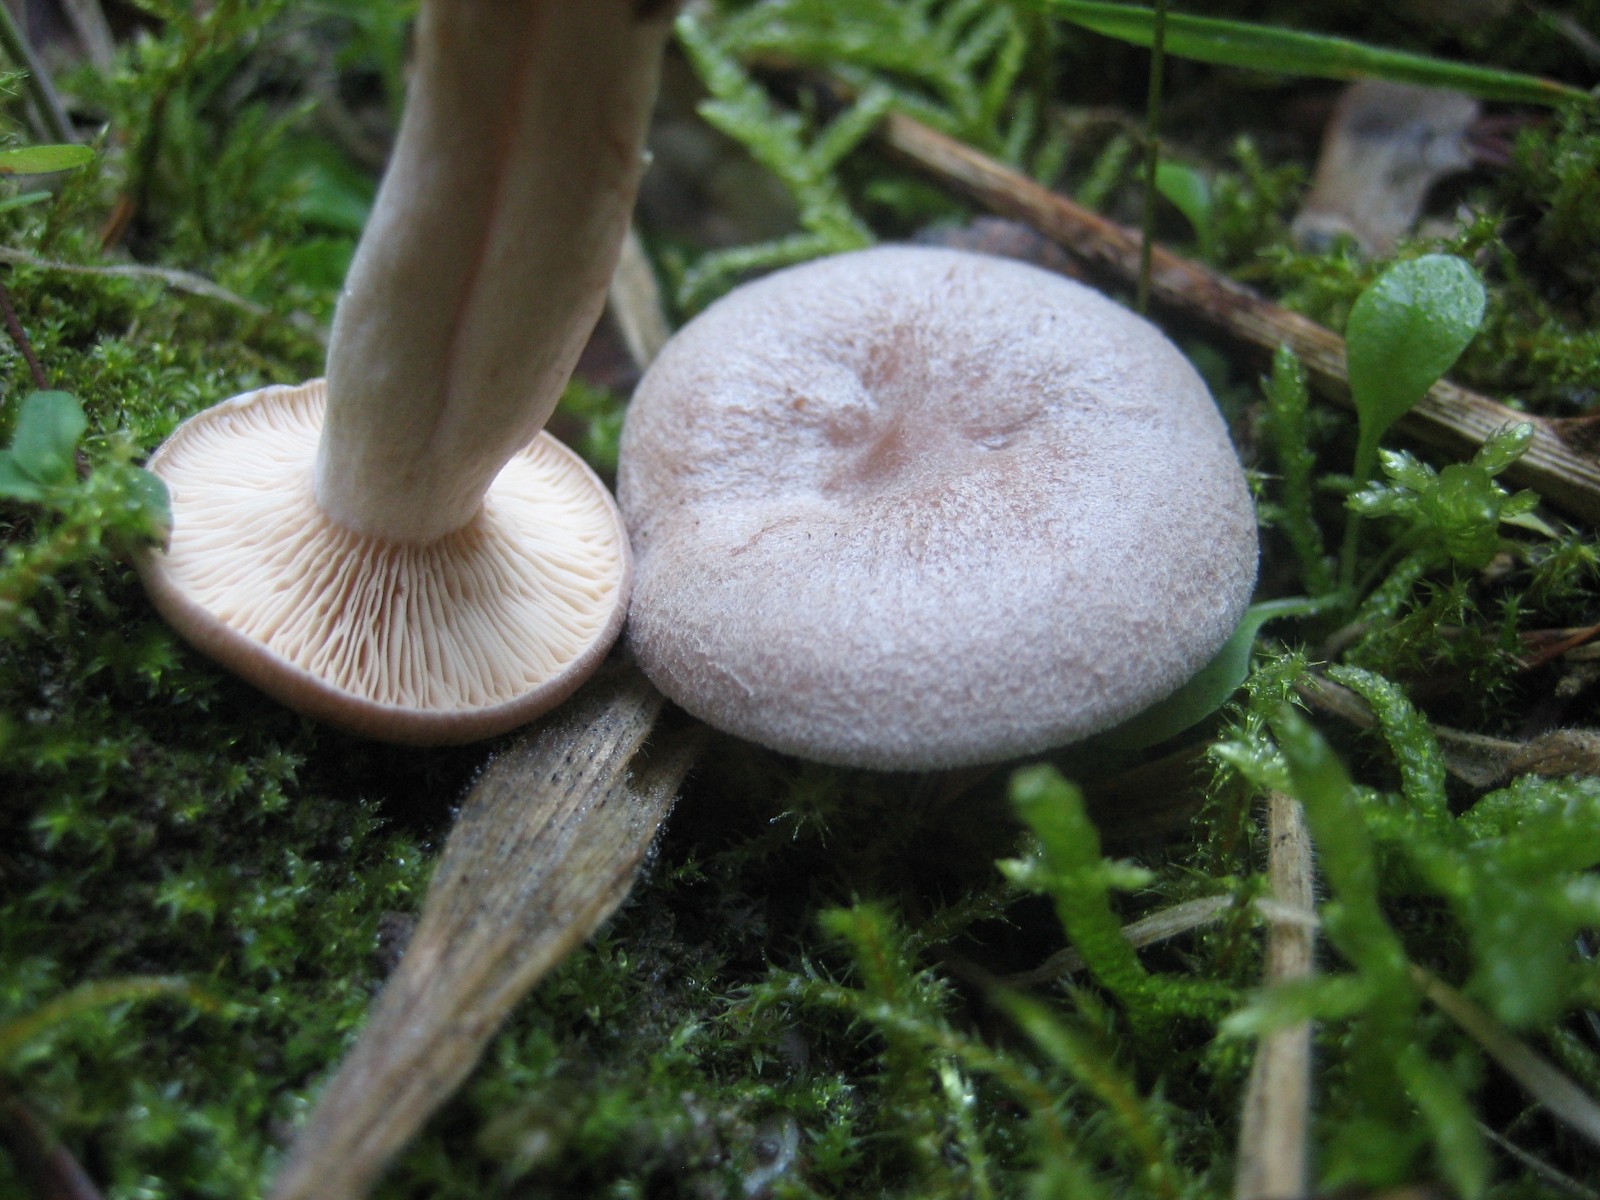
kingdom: Fungi
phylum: Basidiomycota
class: Agaricomycetes
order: Russulales
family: Russulaceae
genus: Lactarius
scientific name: Lactarius glyciosmus
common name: kokos-mælkehat
